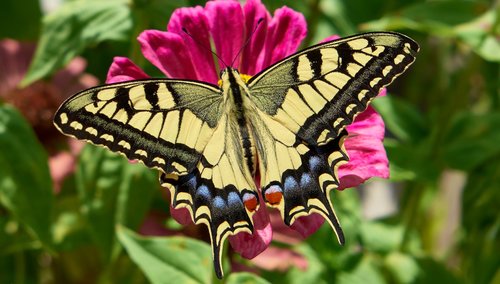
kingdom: Animalia
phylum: Arthropoda
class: Insecta
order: Lepidoptera
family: Papilionidae
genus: Papilio
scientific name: Papilio machaon
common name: Swallowtail
